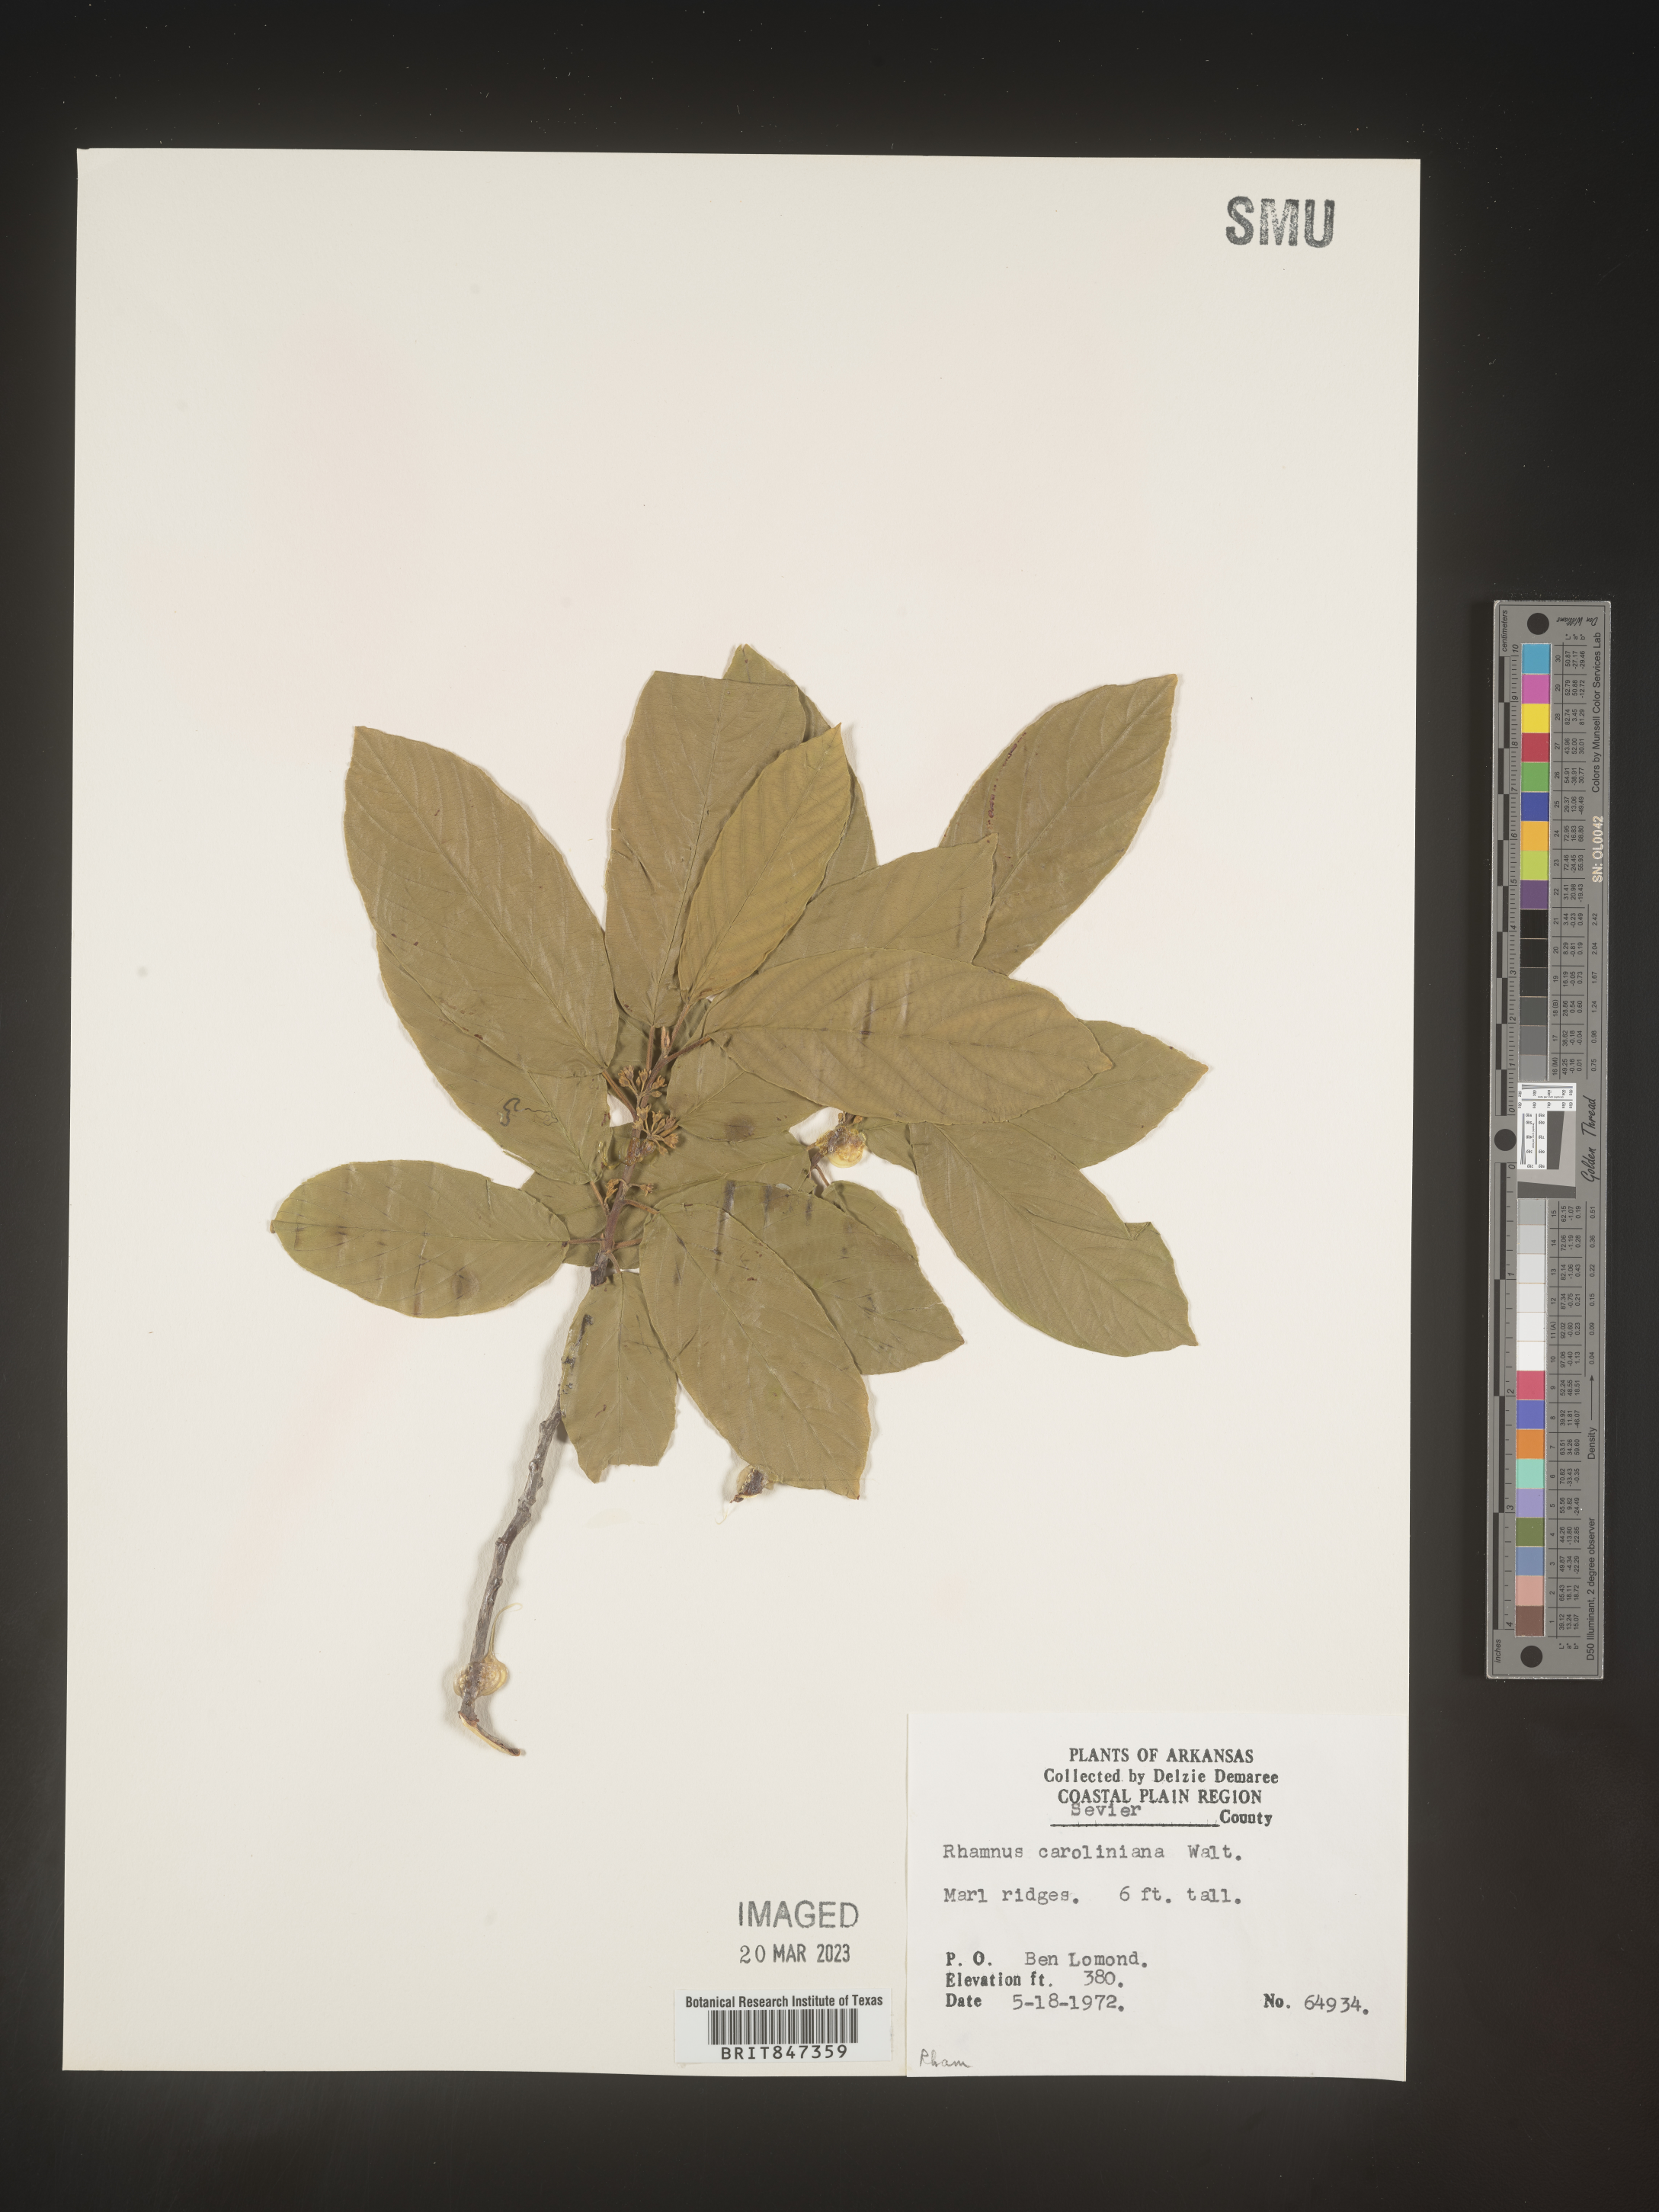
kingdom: Plantae
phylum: Tracheophyta
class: Magnoliopsida
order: Rosales
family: Rhamnaceae
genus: Frangula
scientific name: Frangula caroliniana
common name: Carolina buckthorn
